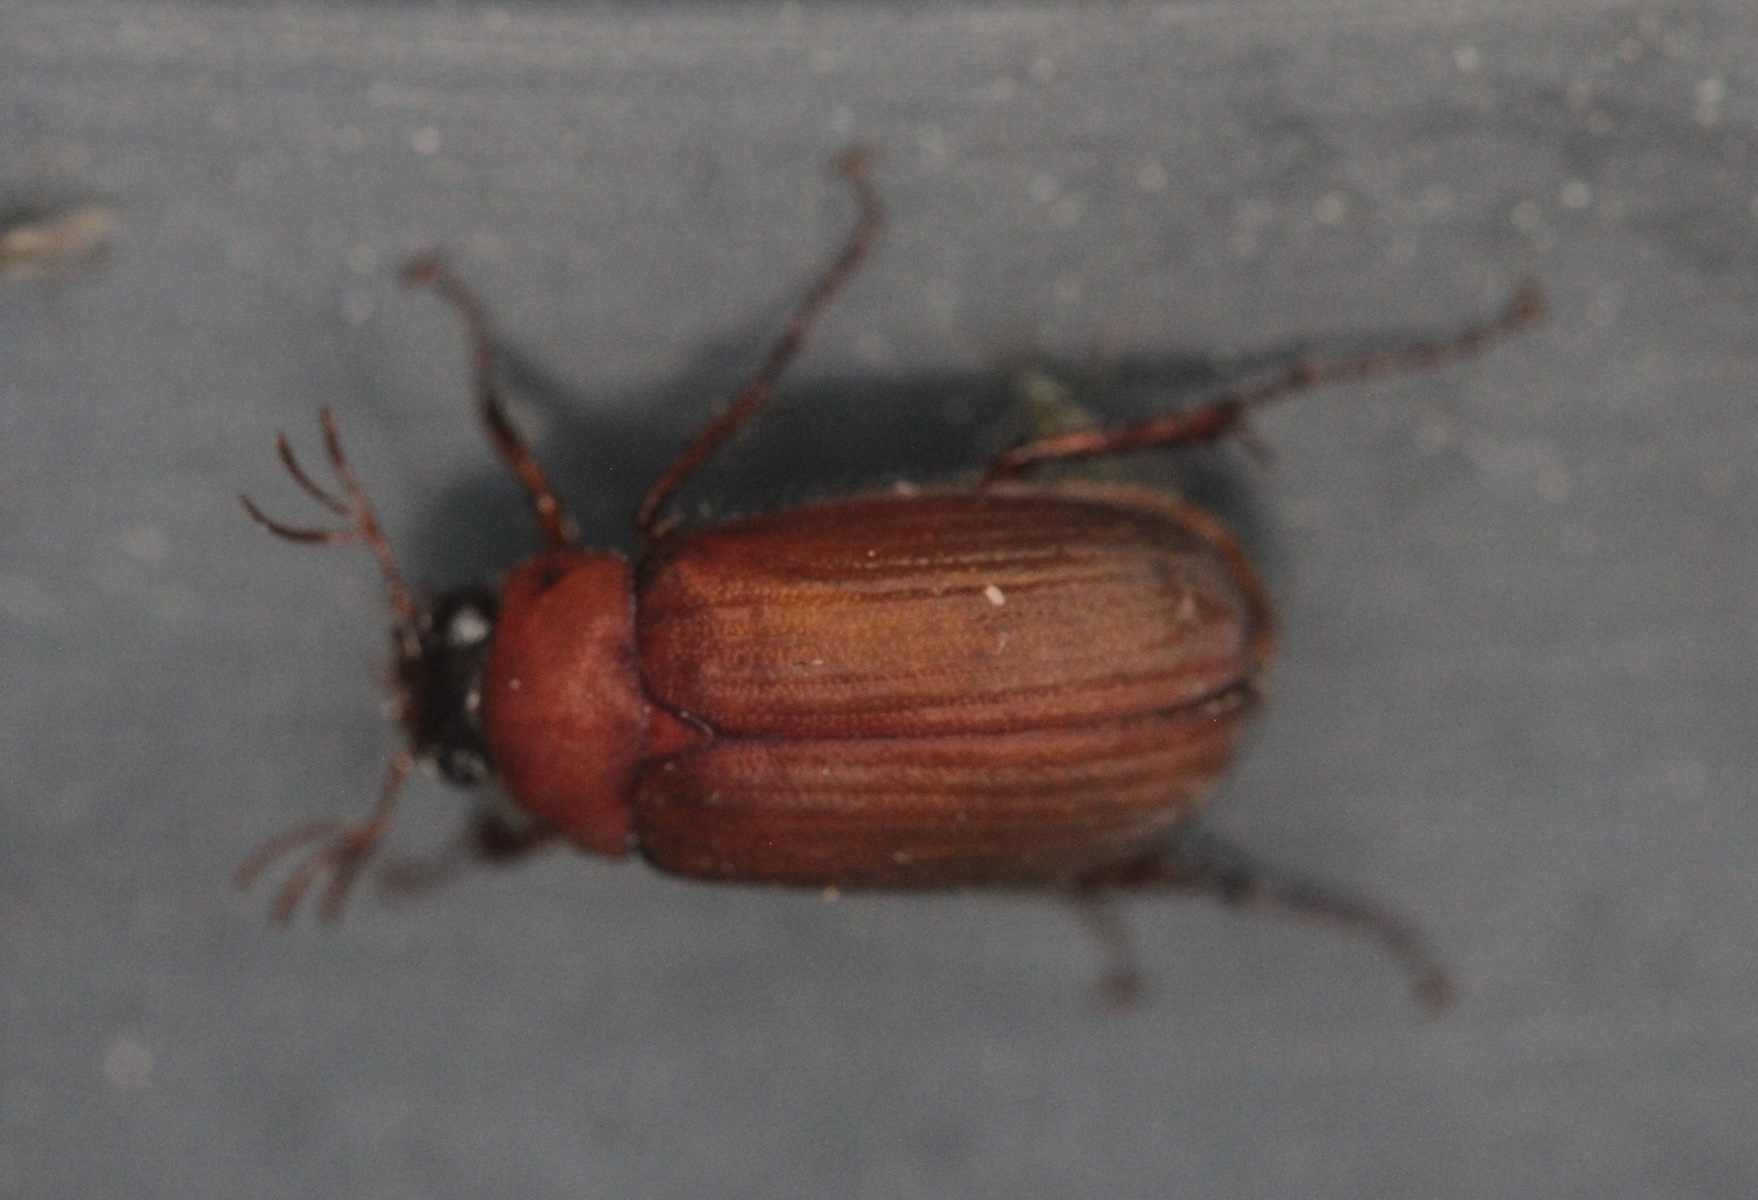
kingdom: Animalia
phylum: Arthropoda
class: Insecta
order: Coleoptera
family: Scarabaeidae
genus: Serica
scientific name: Serica brunnea
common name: Brown chafer
